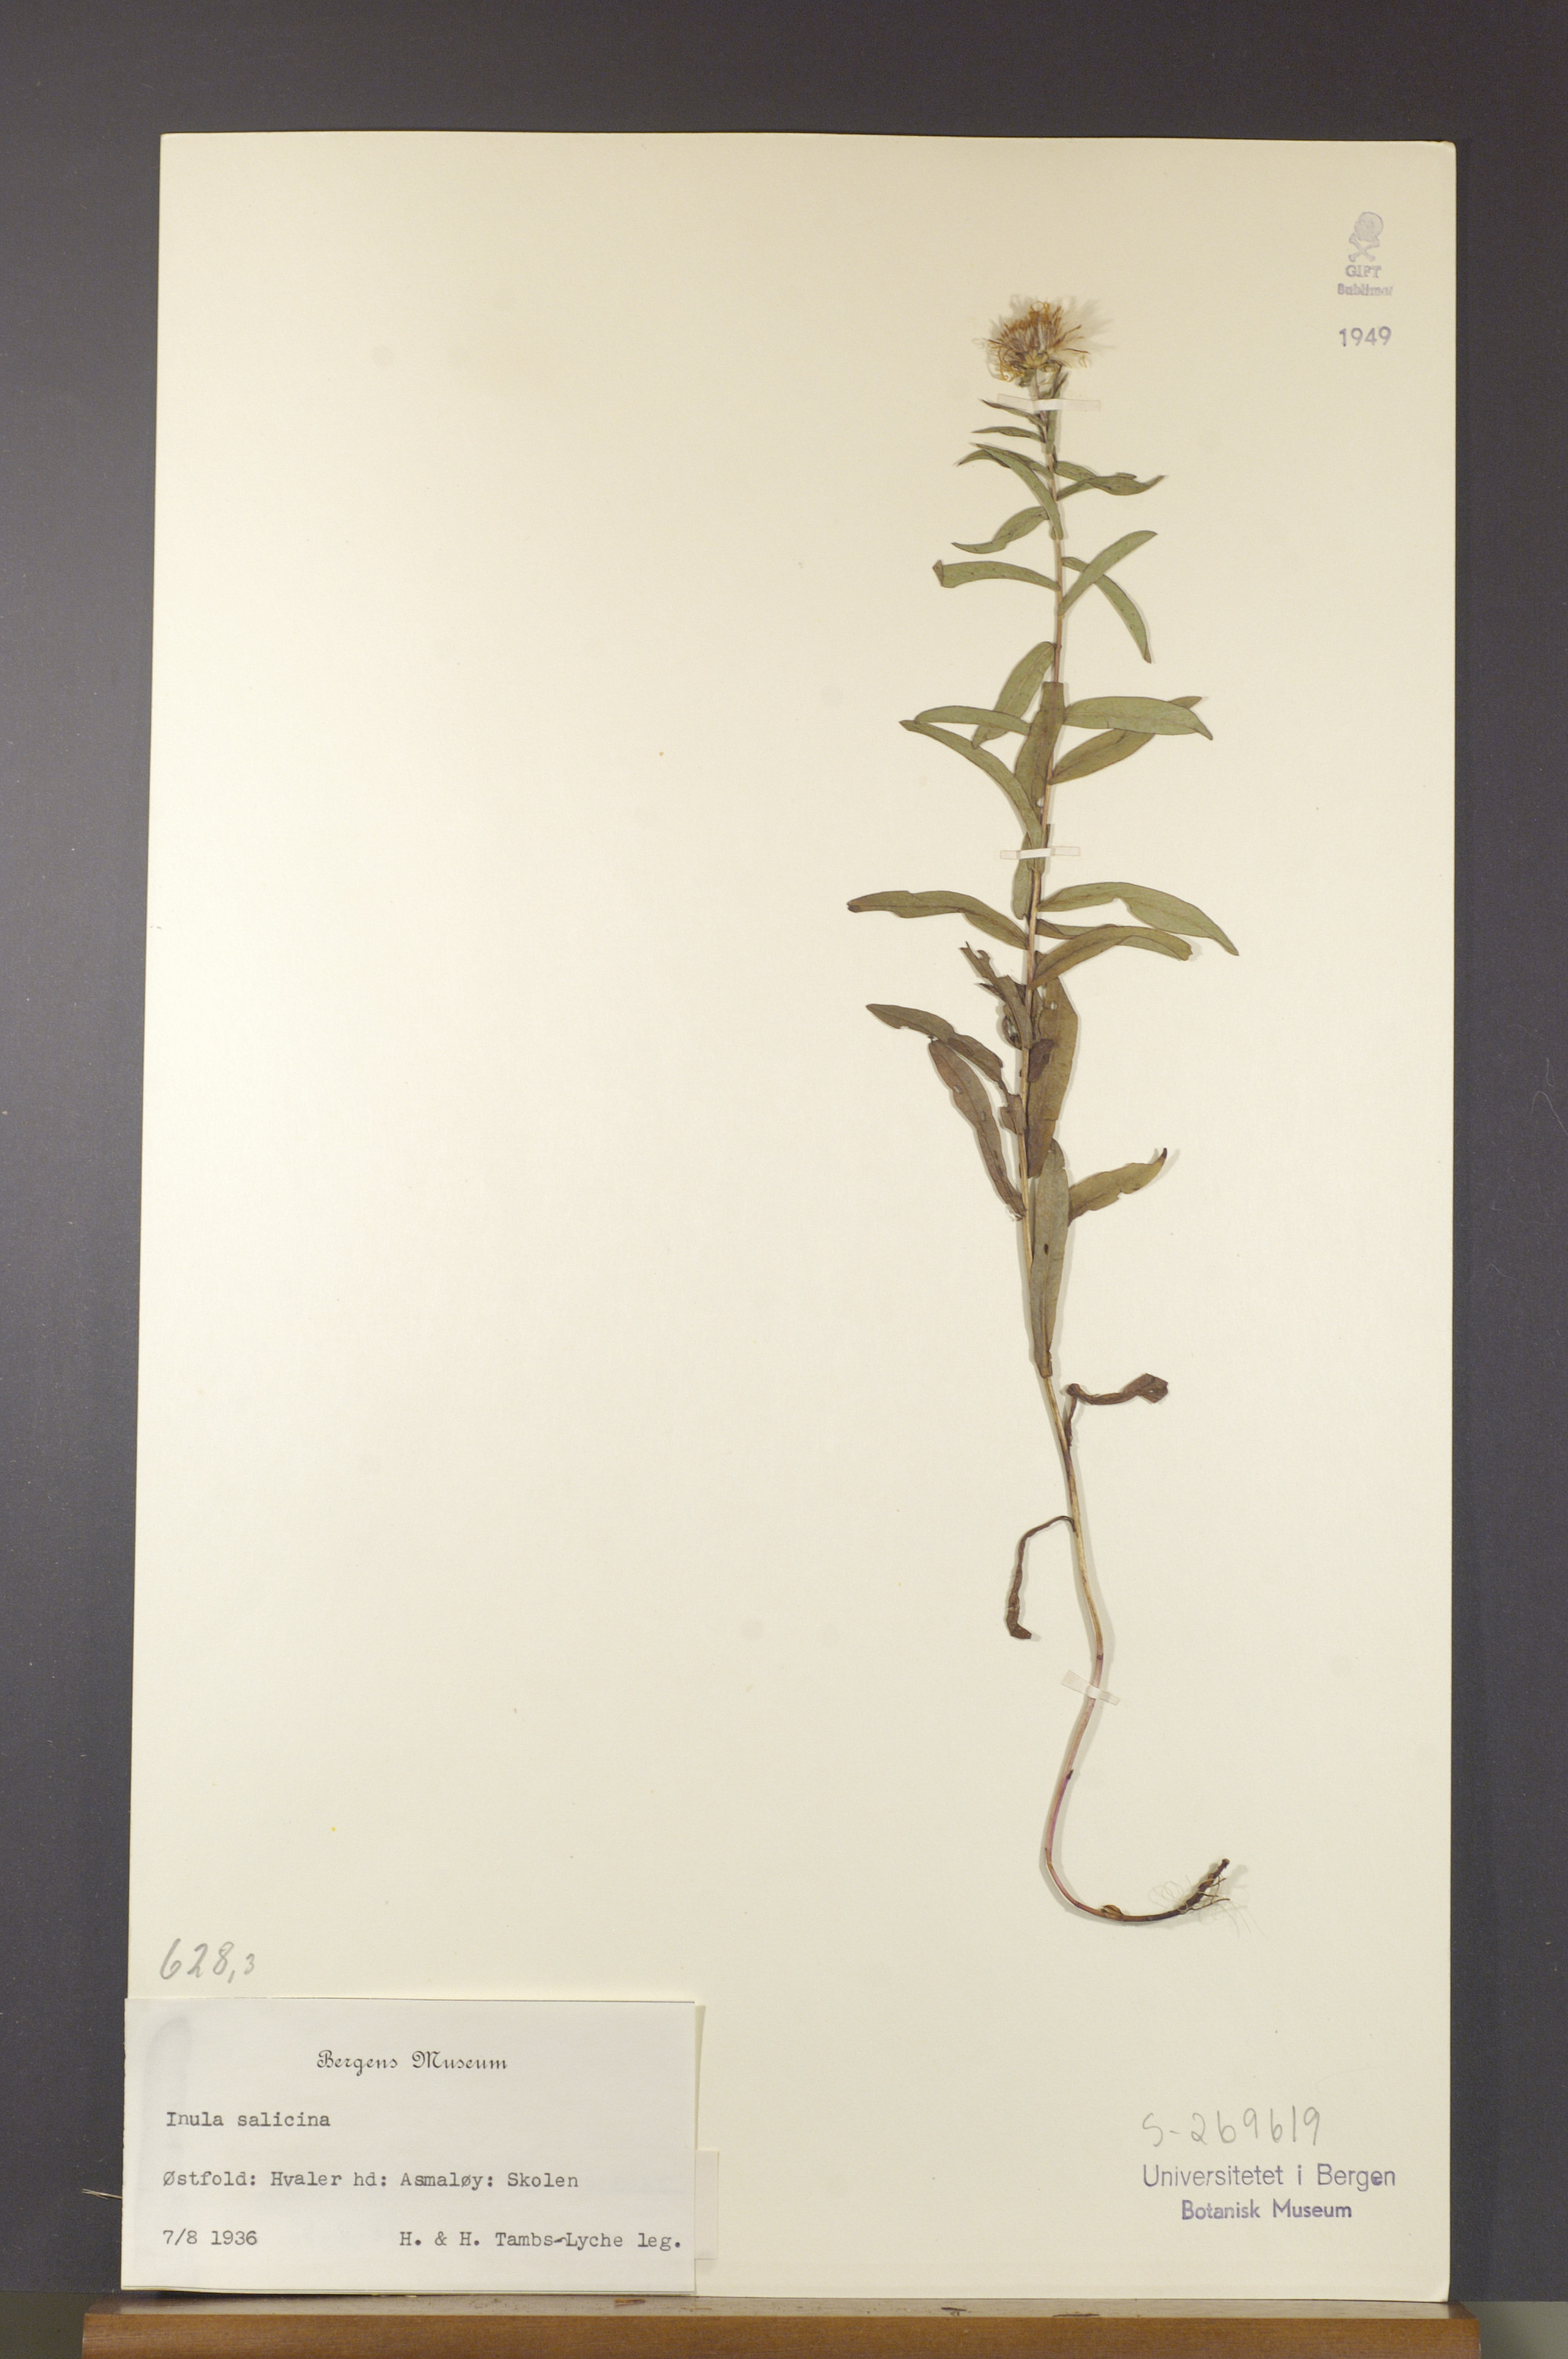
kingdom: Plantae
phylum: Tracheophyta
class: Magnoliopsida
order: Asterales
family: Asteraceae
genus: Pentanema
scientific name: Pentanema salicinum
